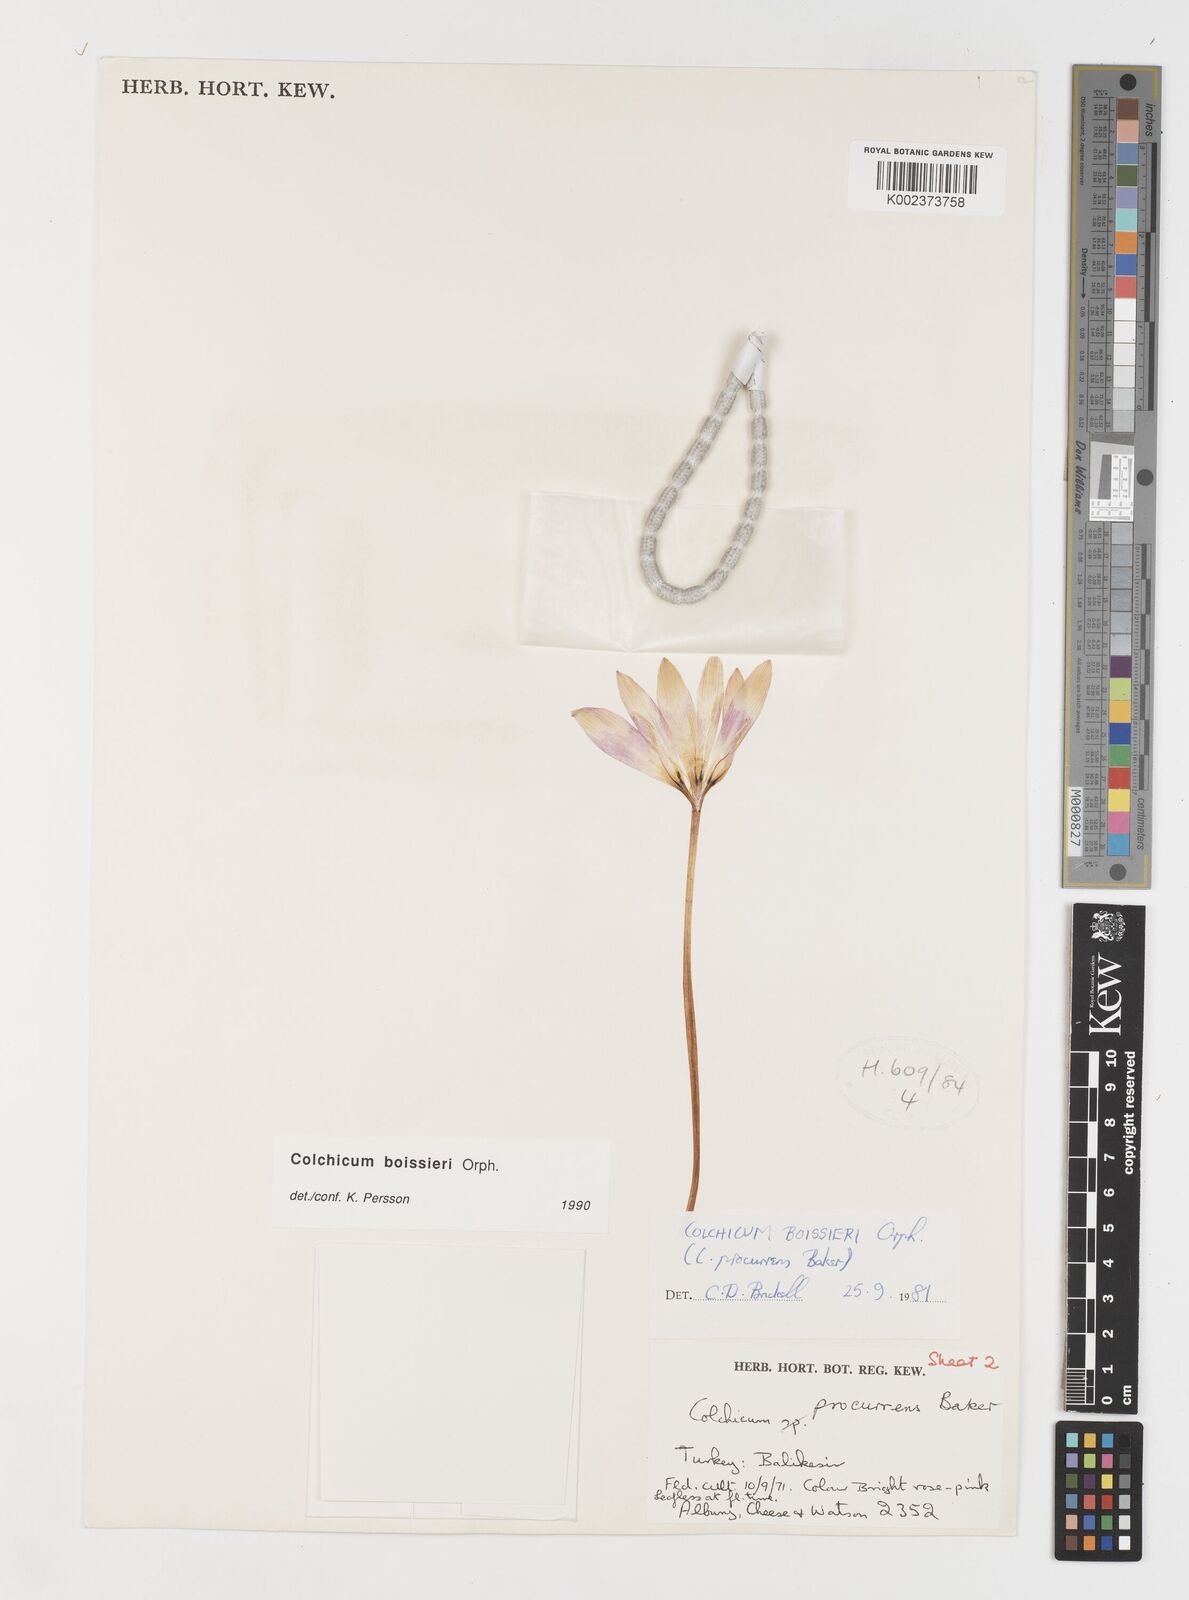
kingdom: Plantae
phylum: Tracheophyta
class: Liliopsida
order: Liliales
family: Colchicaceae
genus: Colchicum
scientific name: Colchicum boissieri
